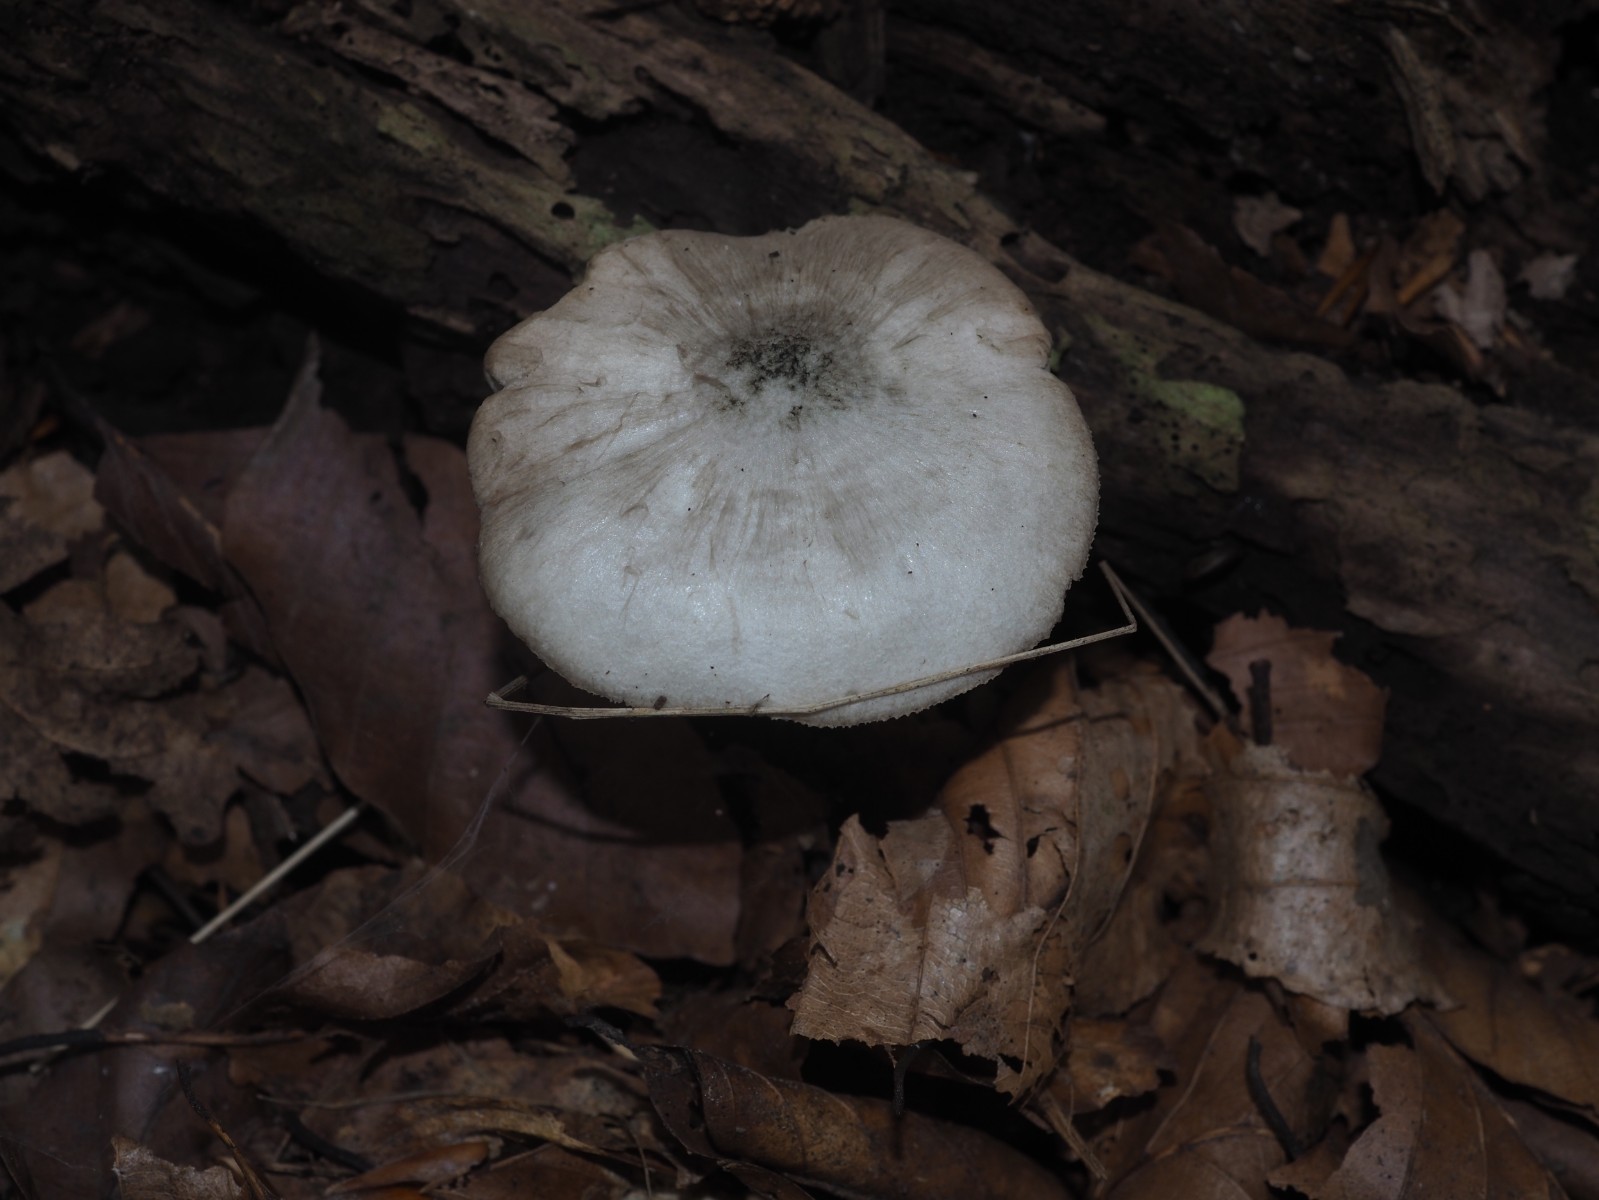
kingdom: Fungi
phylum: Basidiomycota
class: Agaricomycetes
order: Agaricales
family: Pluteaceae
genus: Pluteus
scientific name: Pluteus salicinus
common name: stiv skærmhat
